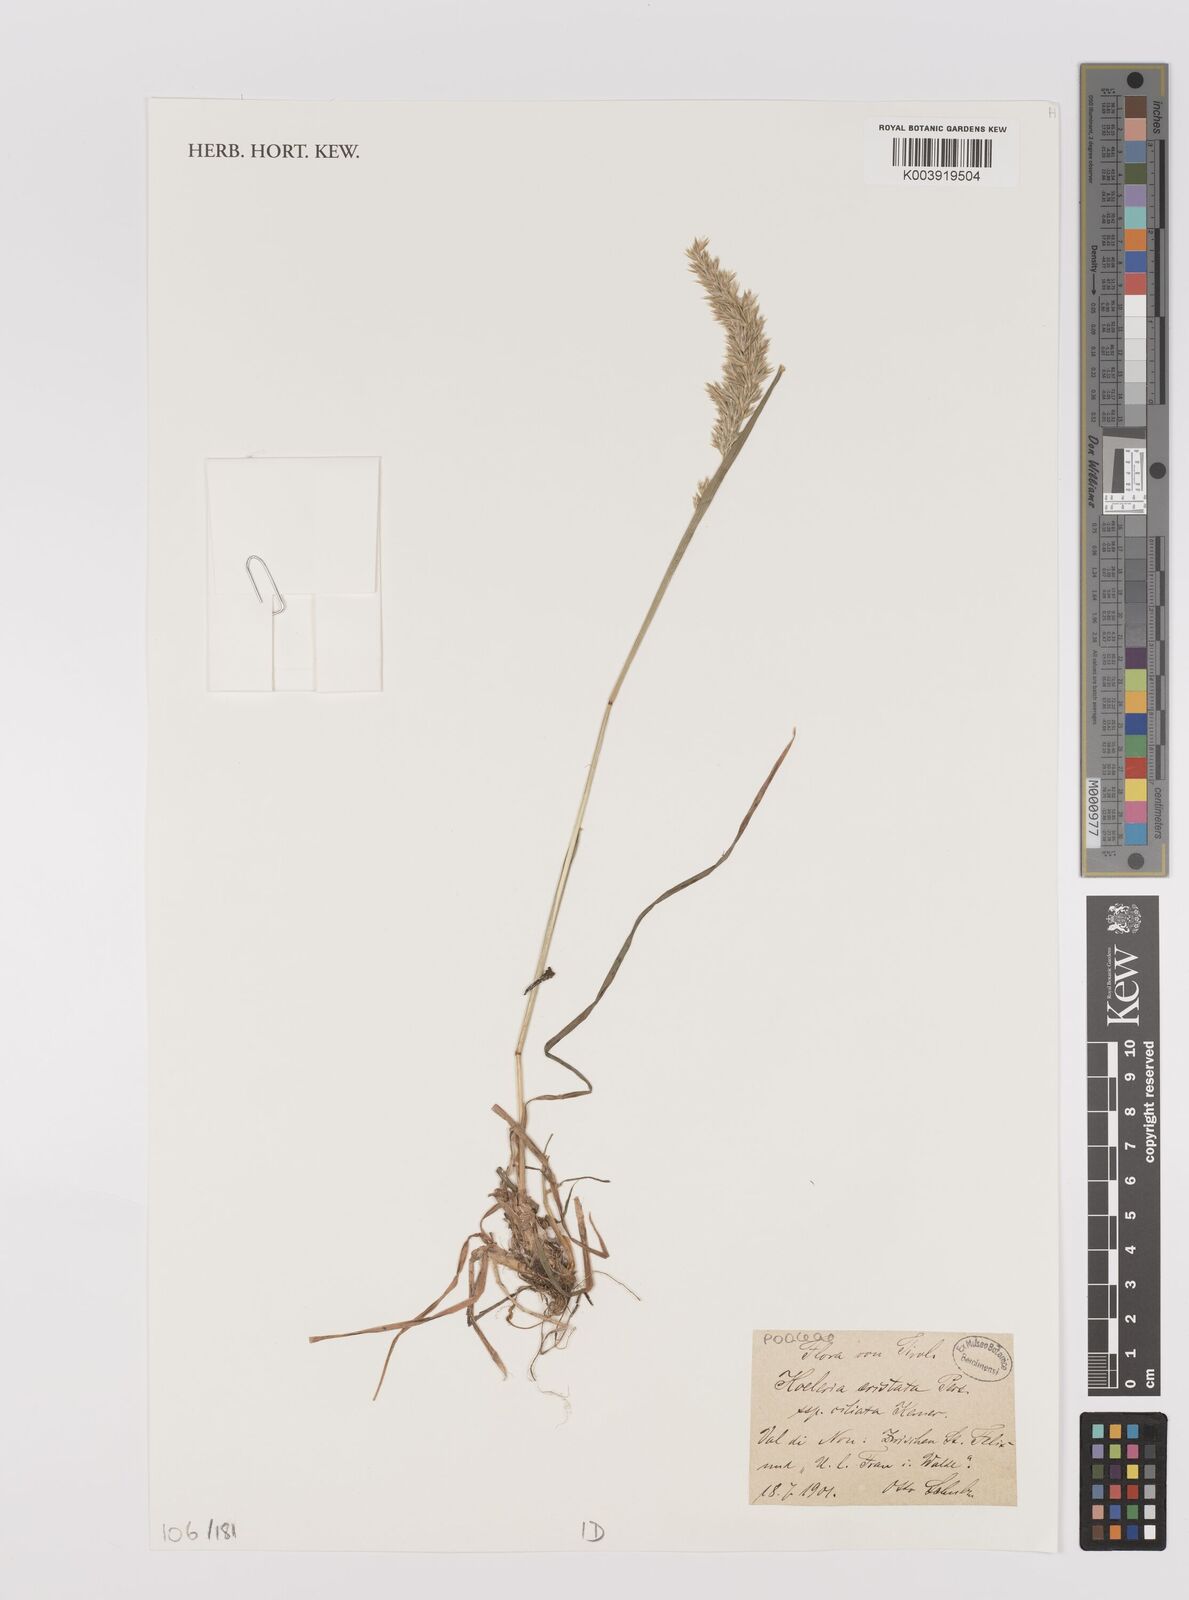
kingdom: Plantae
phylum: Tracheophyta
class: Liliopsida
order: Poales
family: Poaceae
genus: Koeleria
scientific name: Koeleria spicata
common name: Mountain trisetum
